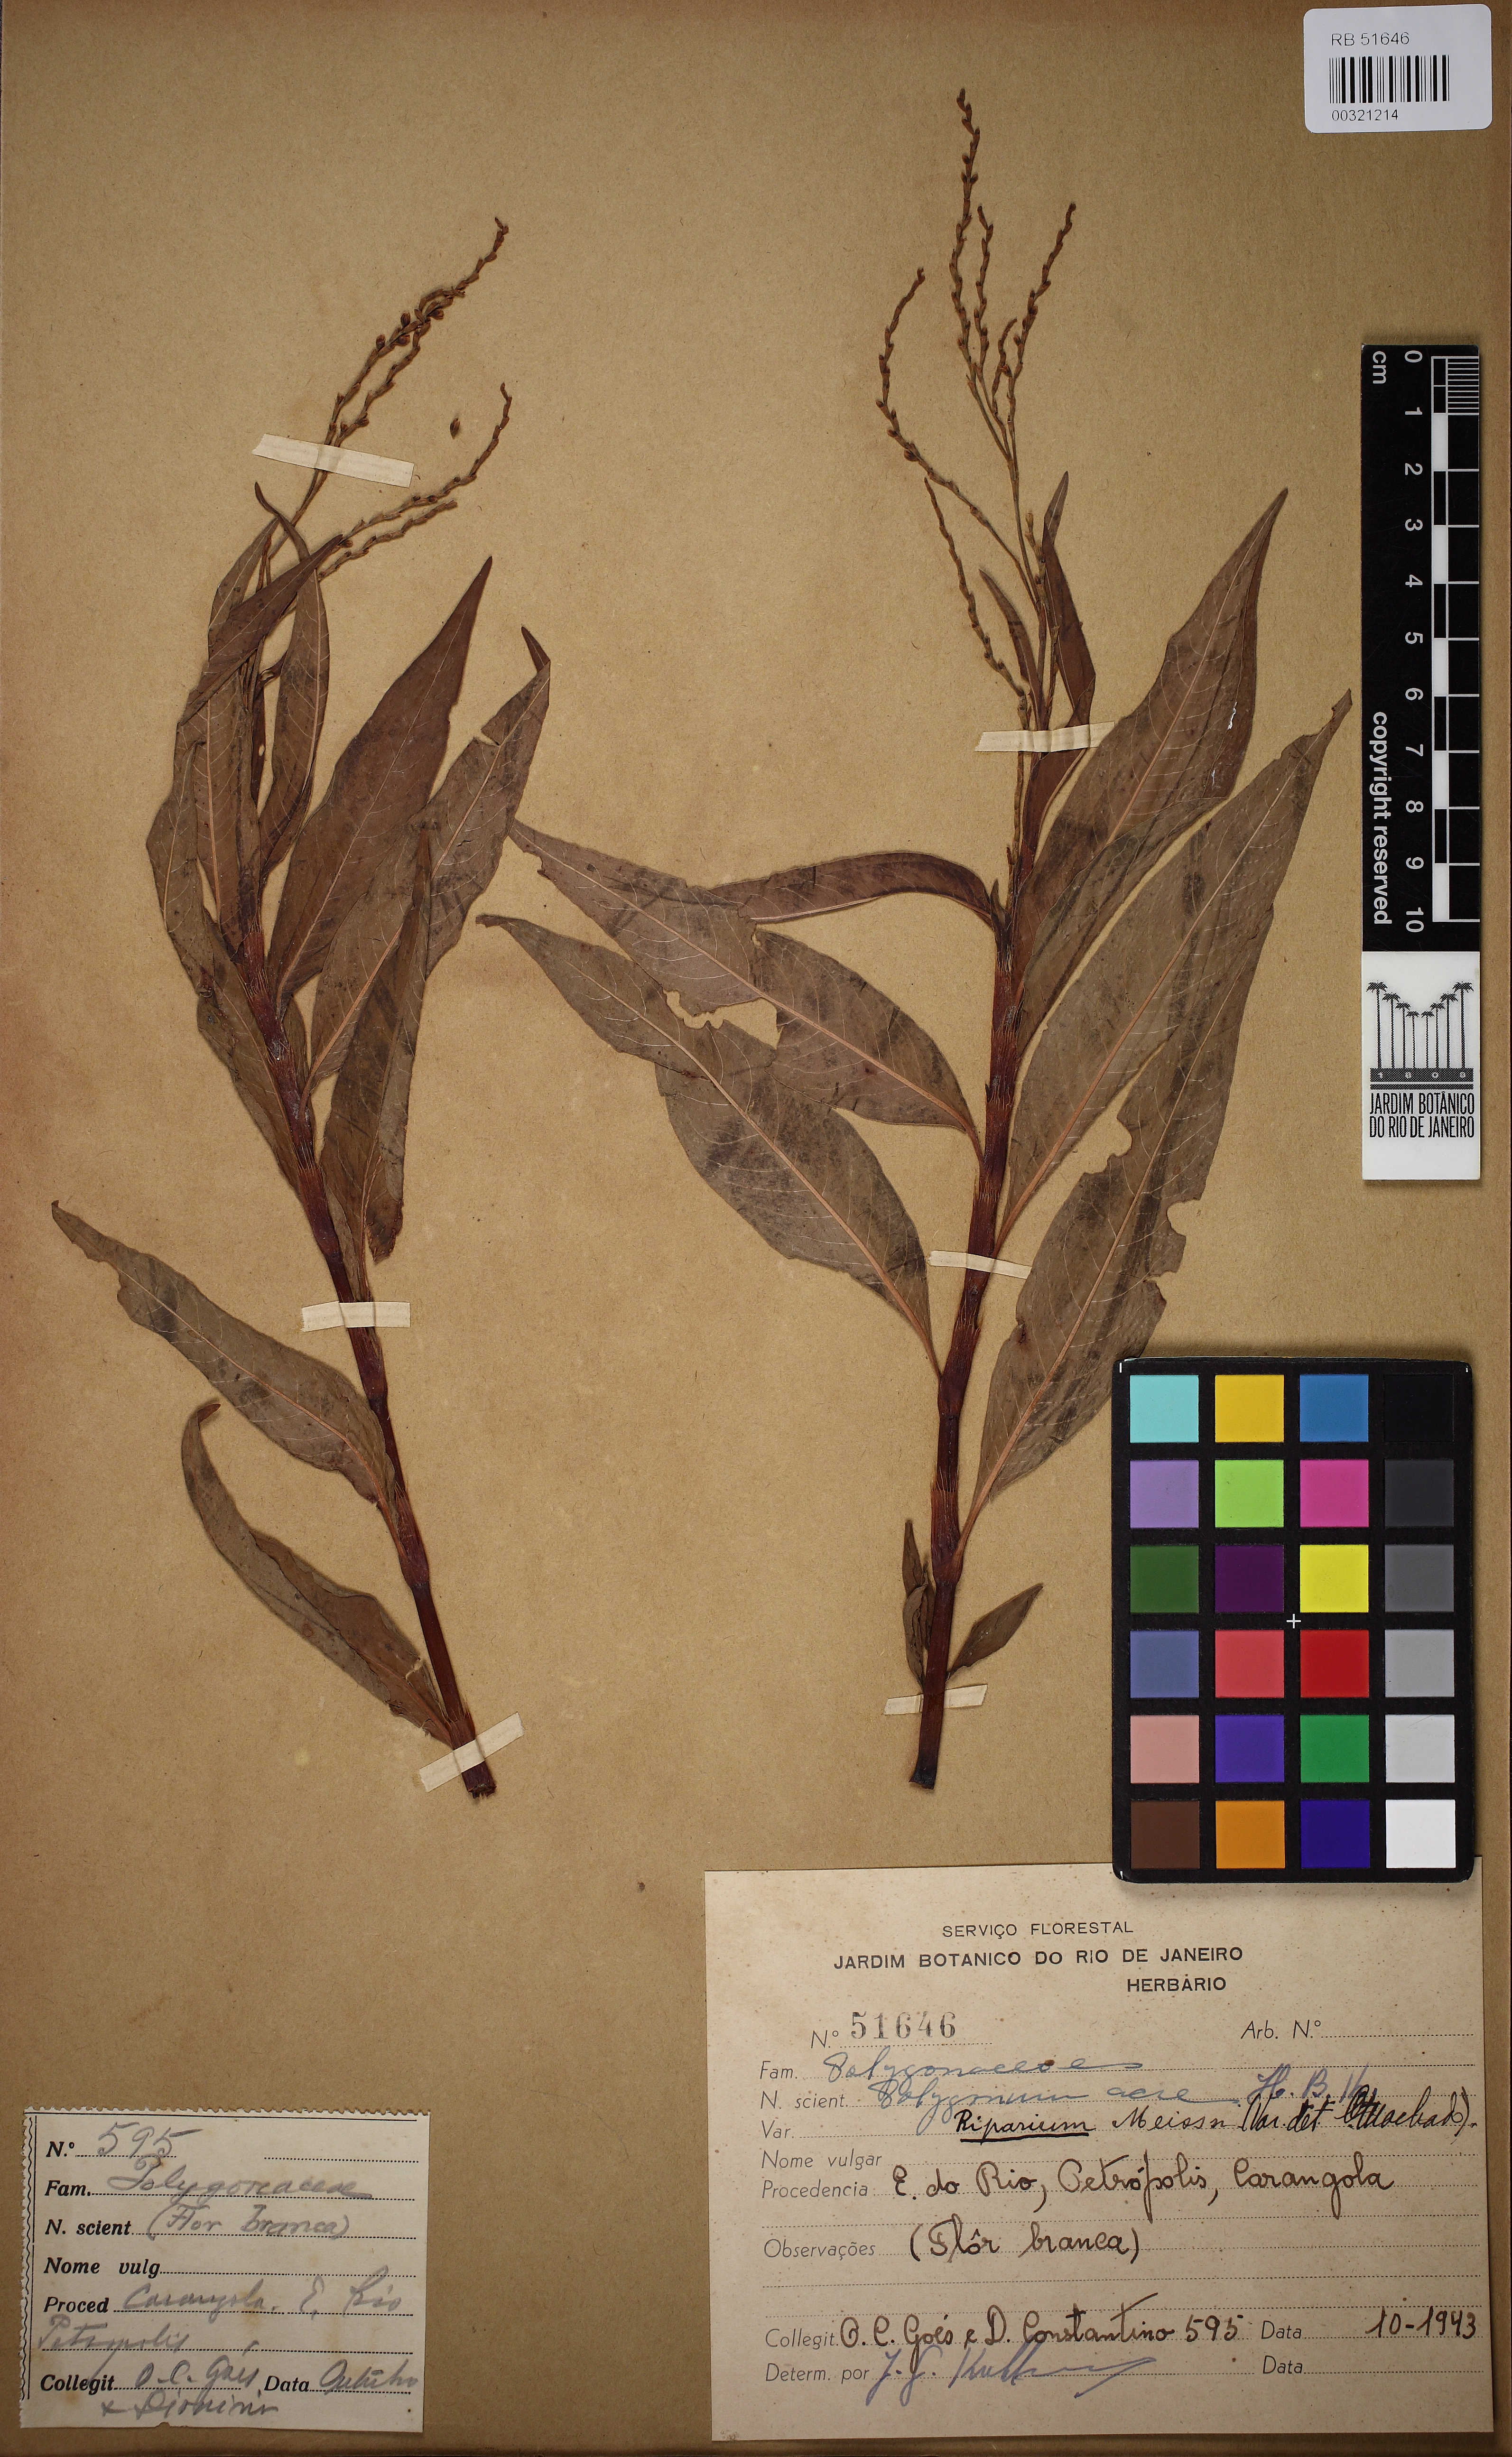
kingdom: Plantae
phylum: Tracheophyta
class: Magnoliopsida
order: Caryophyllales
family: Polygonaceae
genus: Persicaria
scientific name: Persicaria punctata
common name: Dotted smartweed
